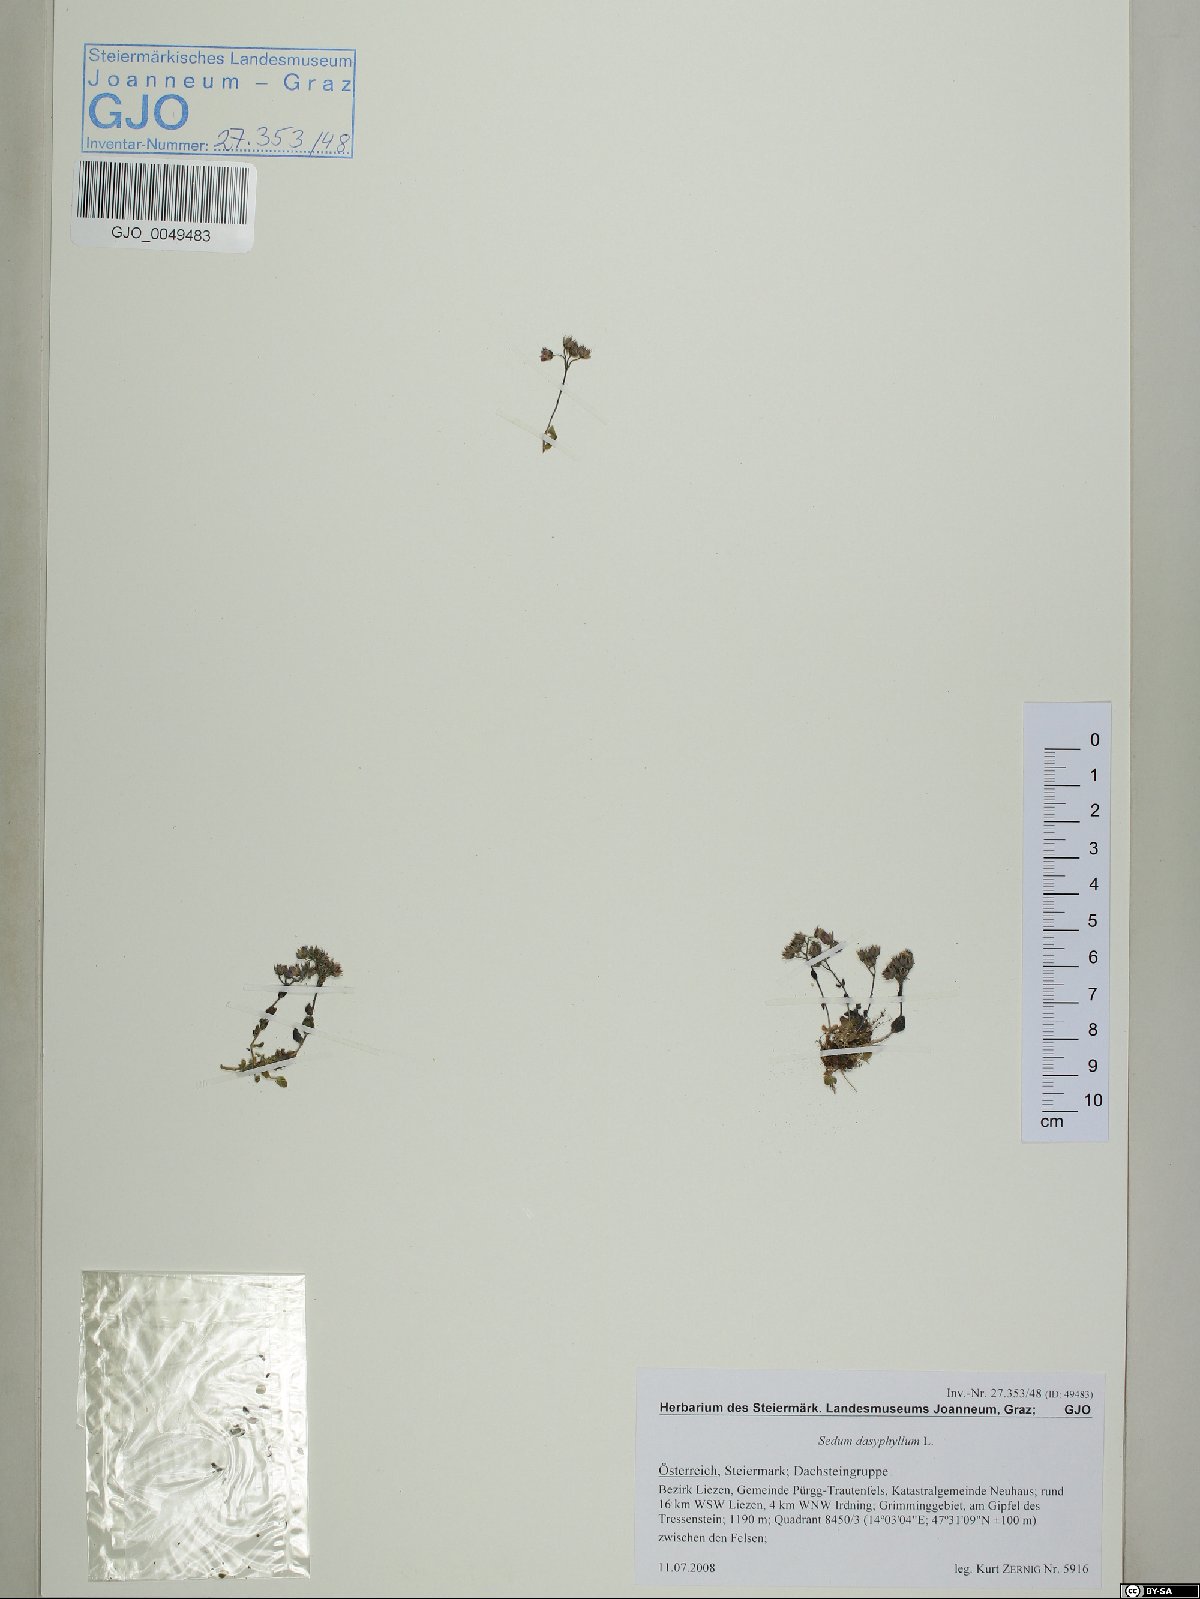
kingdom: Plantae
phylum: Tracheophyta
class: Magnoliopsida
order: Saxifragales
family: Crassulaceae
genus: Sedum
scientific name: Sedum dasyphyllum
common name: Thick-leaf stonecrop
